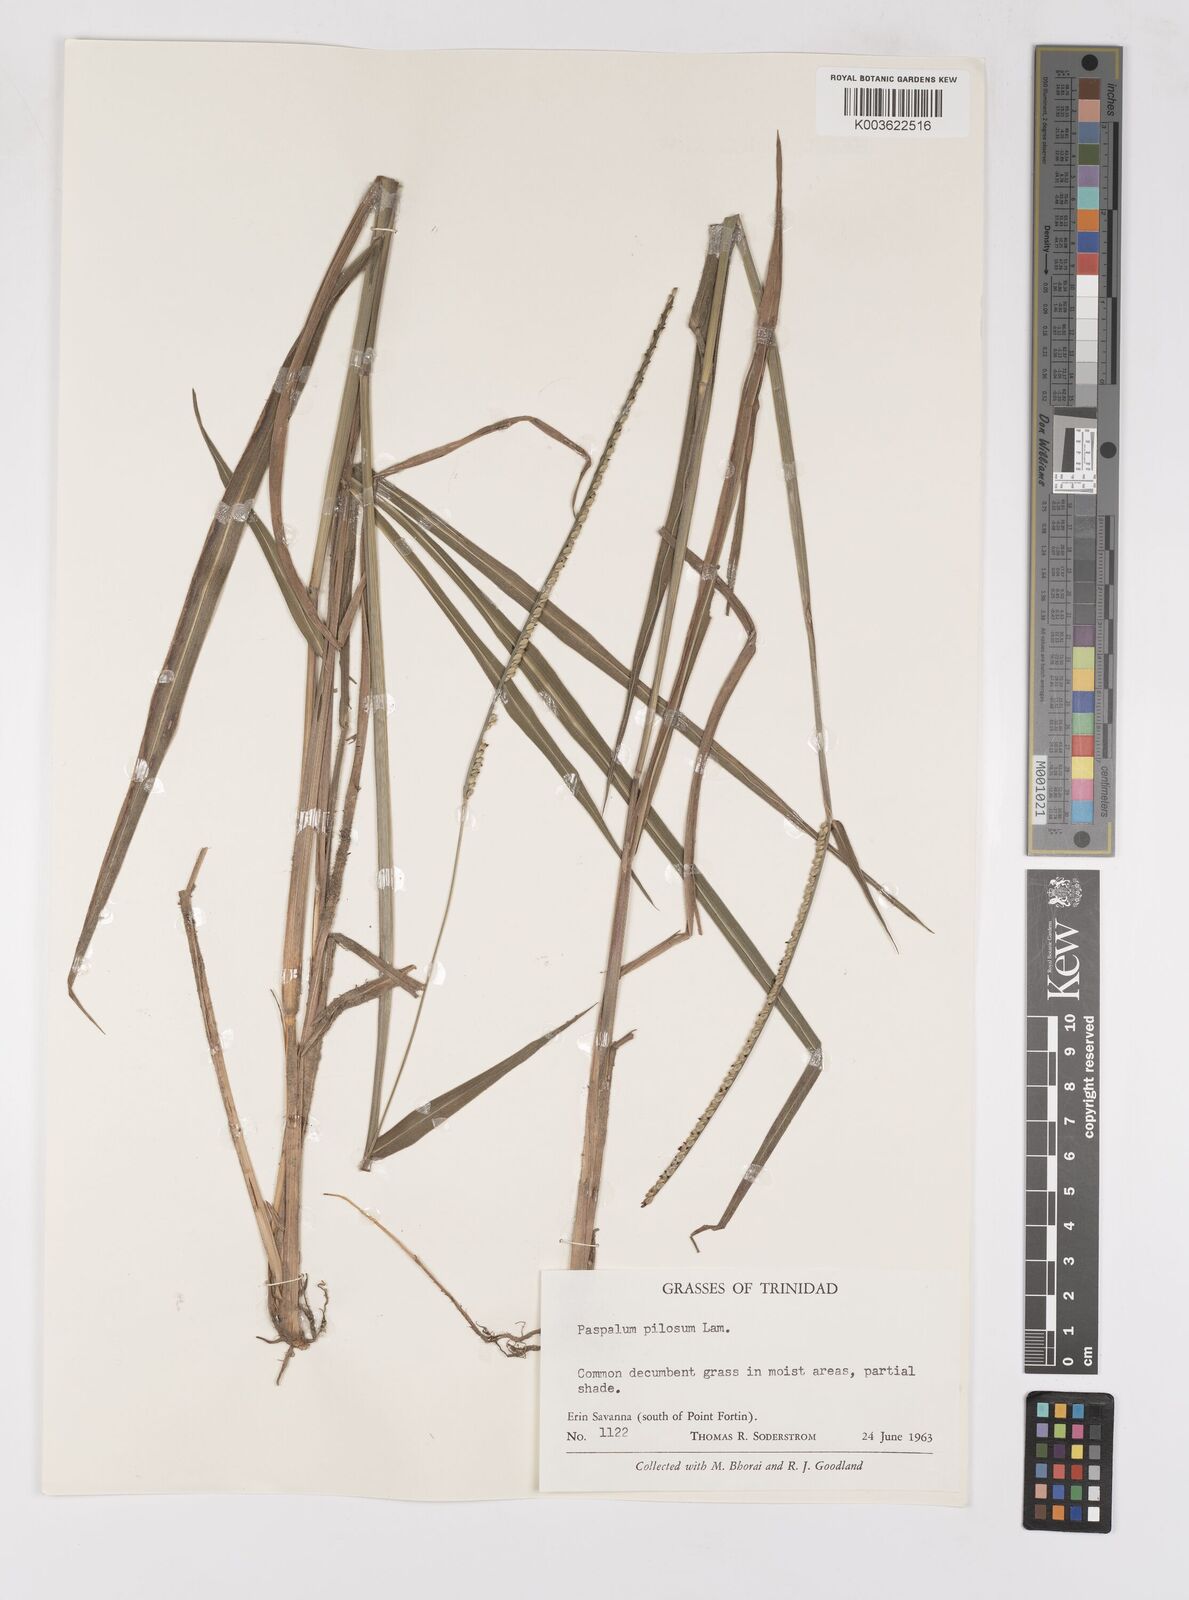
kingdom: Plantae
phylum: Tracheophyta
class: Liliopsida
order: Poales
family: Poaceae
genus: Paspalum
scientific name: Paspalum pilosum
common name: Crowngrass
